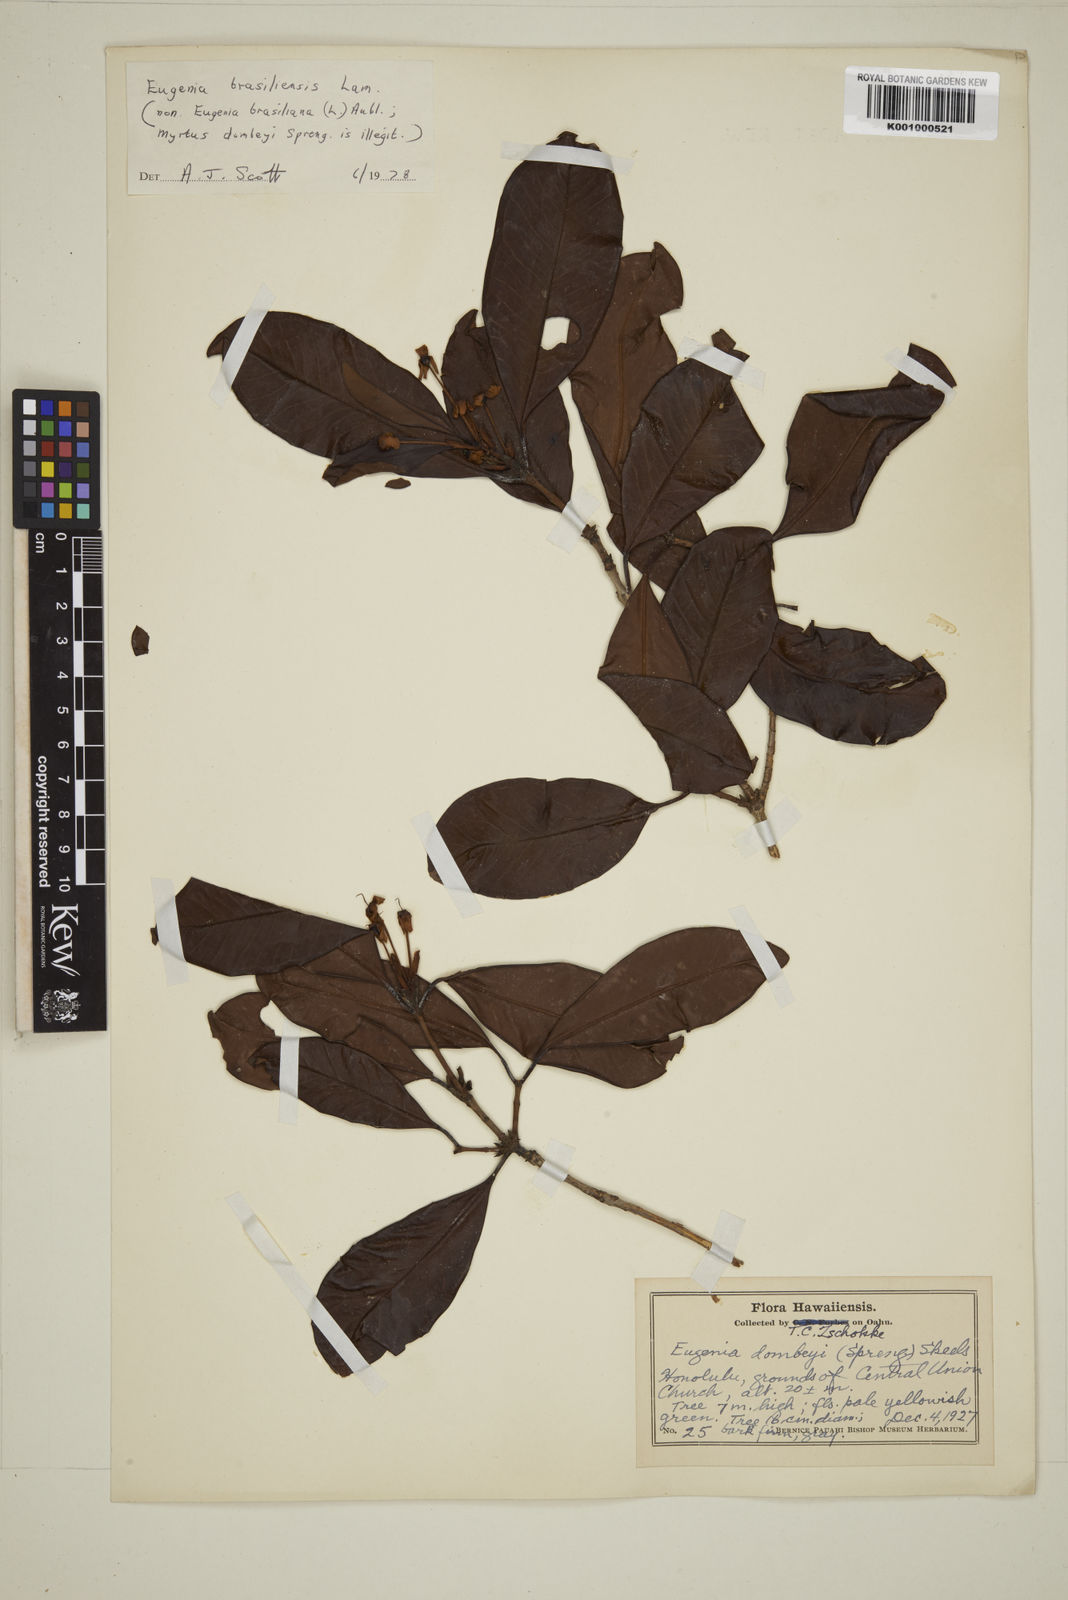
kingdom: Plantae
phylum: Tracheophyta
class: Magnoliopsida
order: Myrtales
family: Myrtaceae
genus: Eugenia
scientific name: Eugenia brasiliensis
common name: Grumichama
